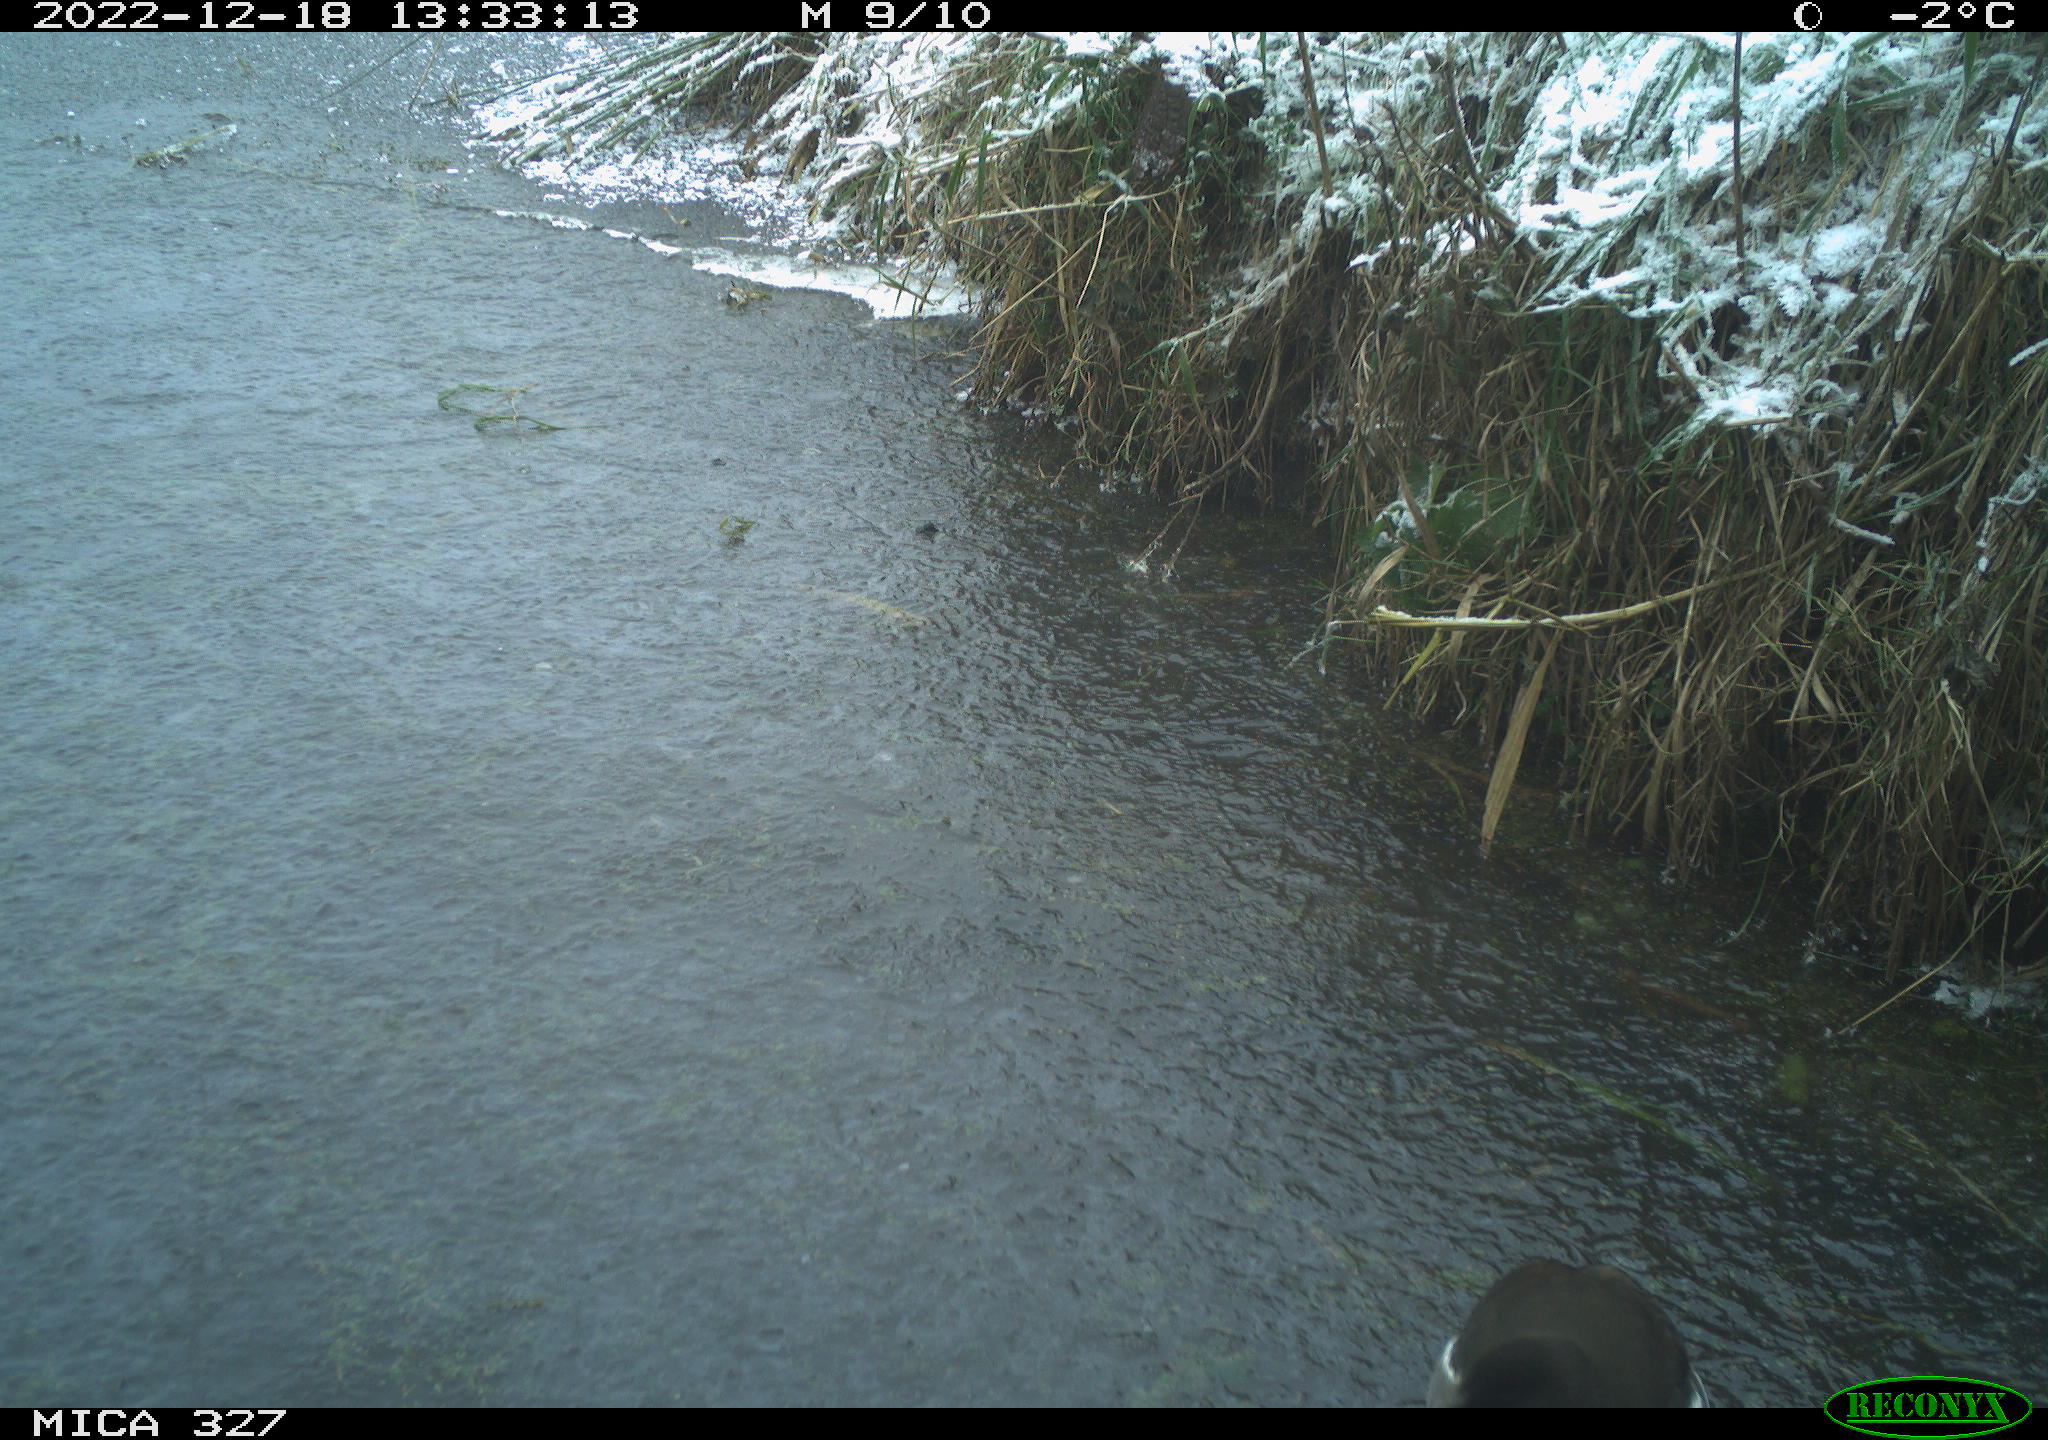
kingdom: Animalia
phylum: Chordata
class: Aves
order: Gruiformes
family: Rallidae
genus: Gallinula
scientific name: Gallinula chloropus
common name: Common moorhen
